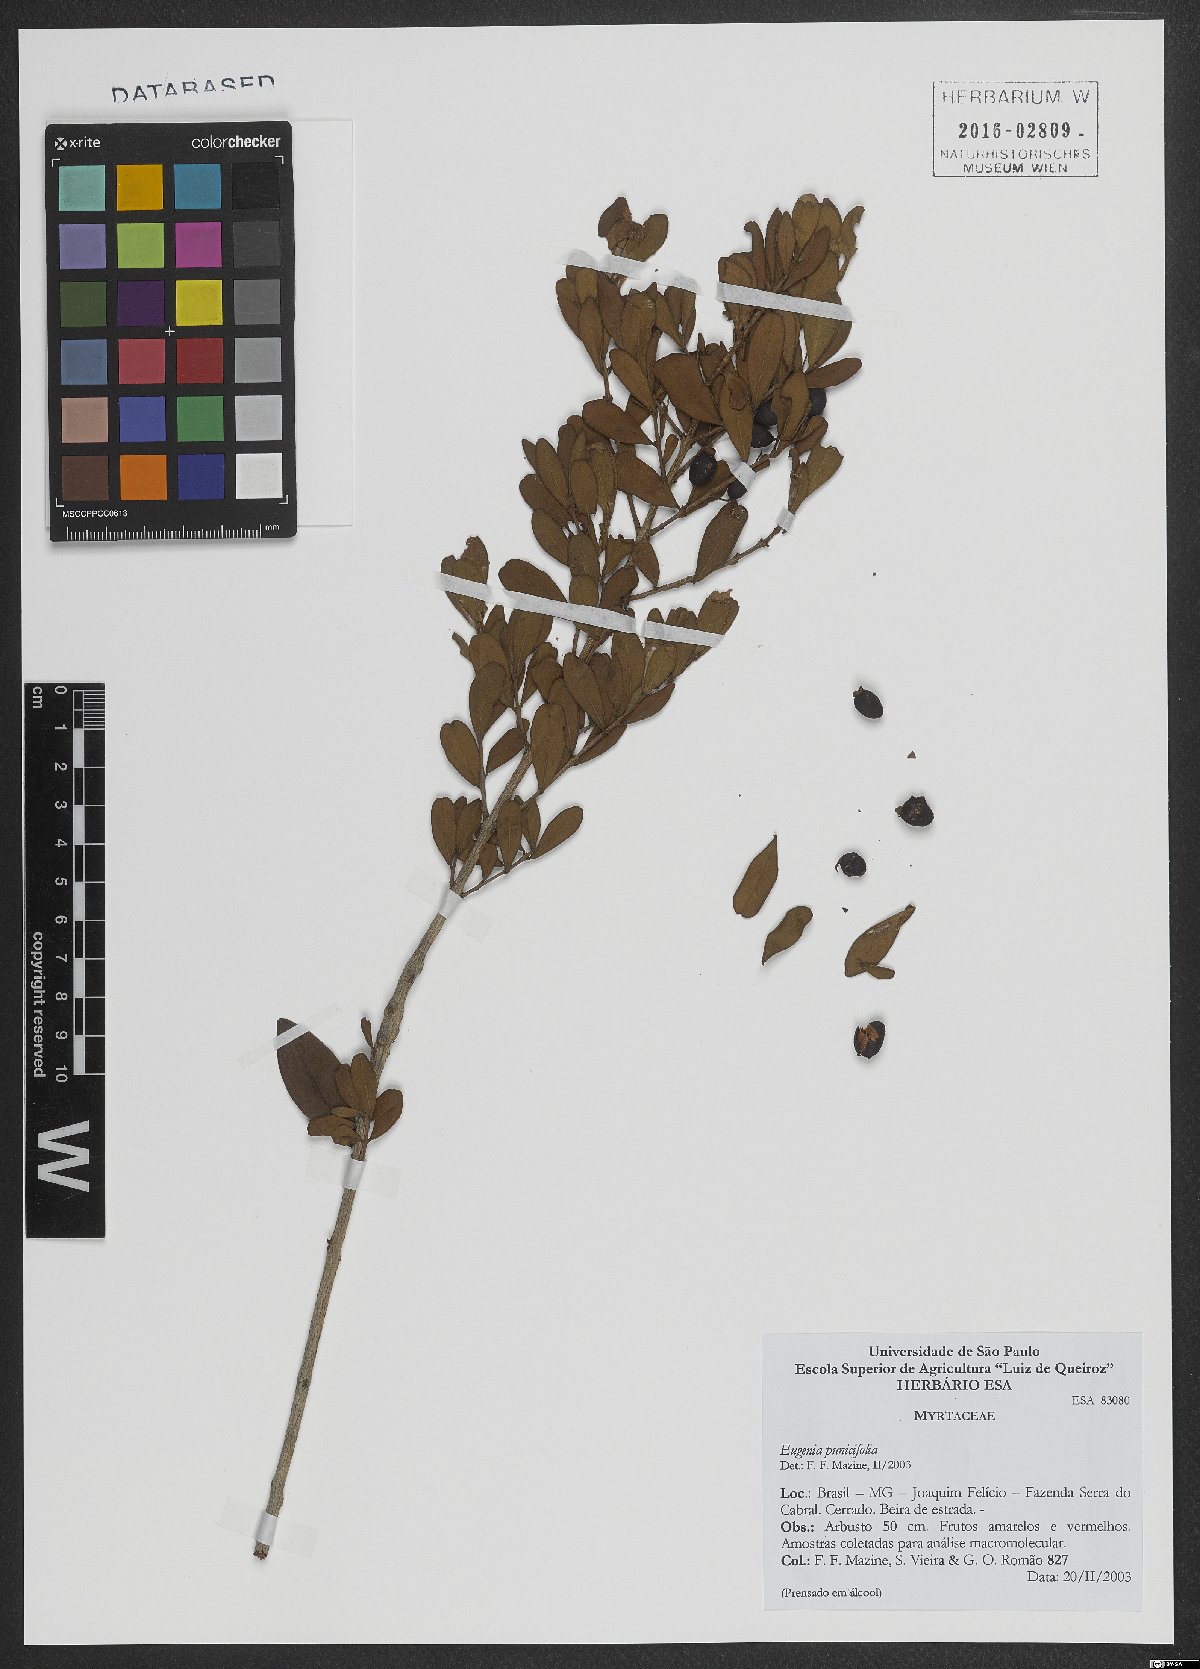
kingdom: Plantae
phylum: Tracheophyta
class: Magnoliopsida
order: Myrtales
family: Myrtaceae
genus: Eugenia
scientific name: Eugenia punicifolia
